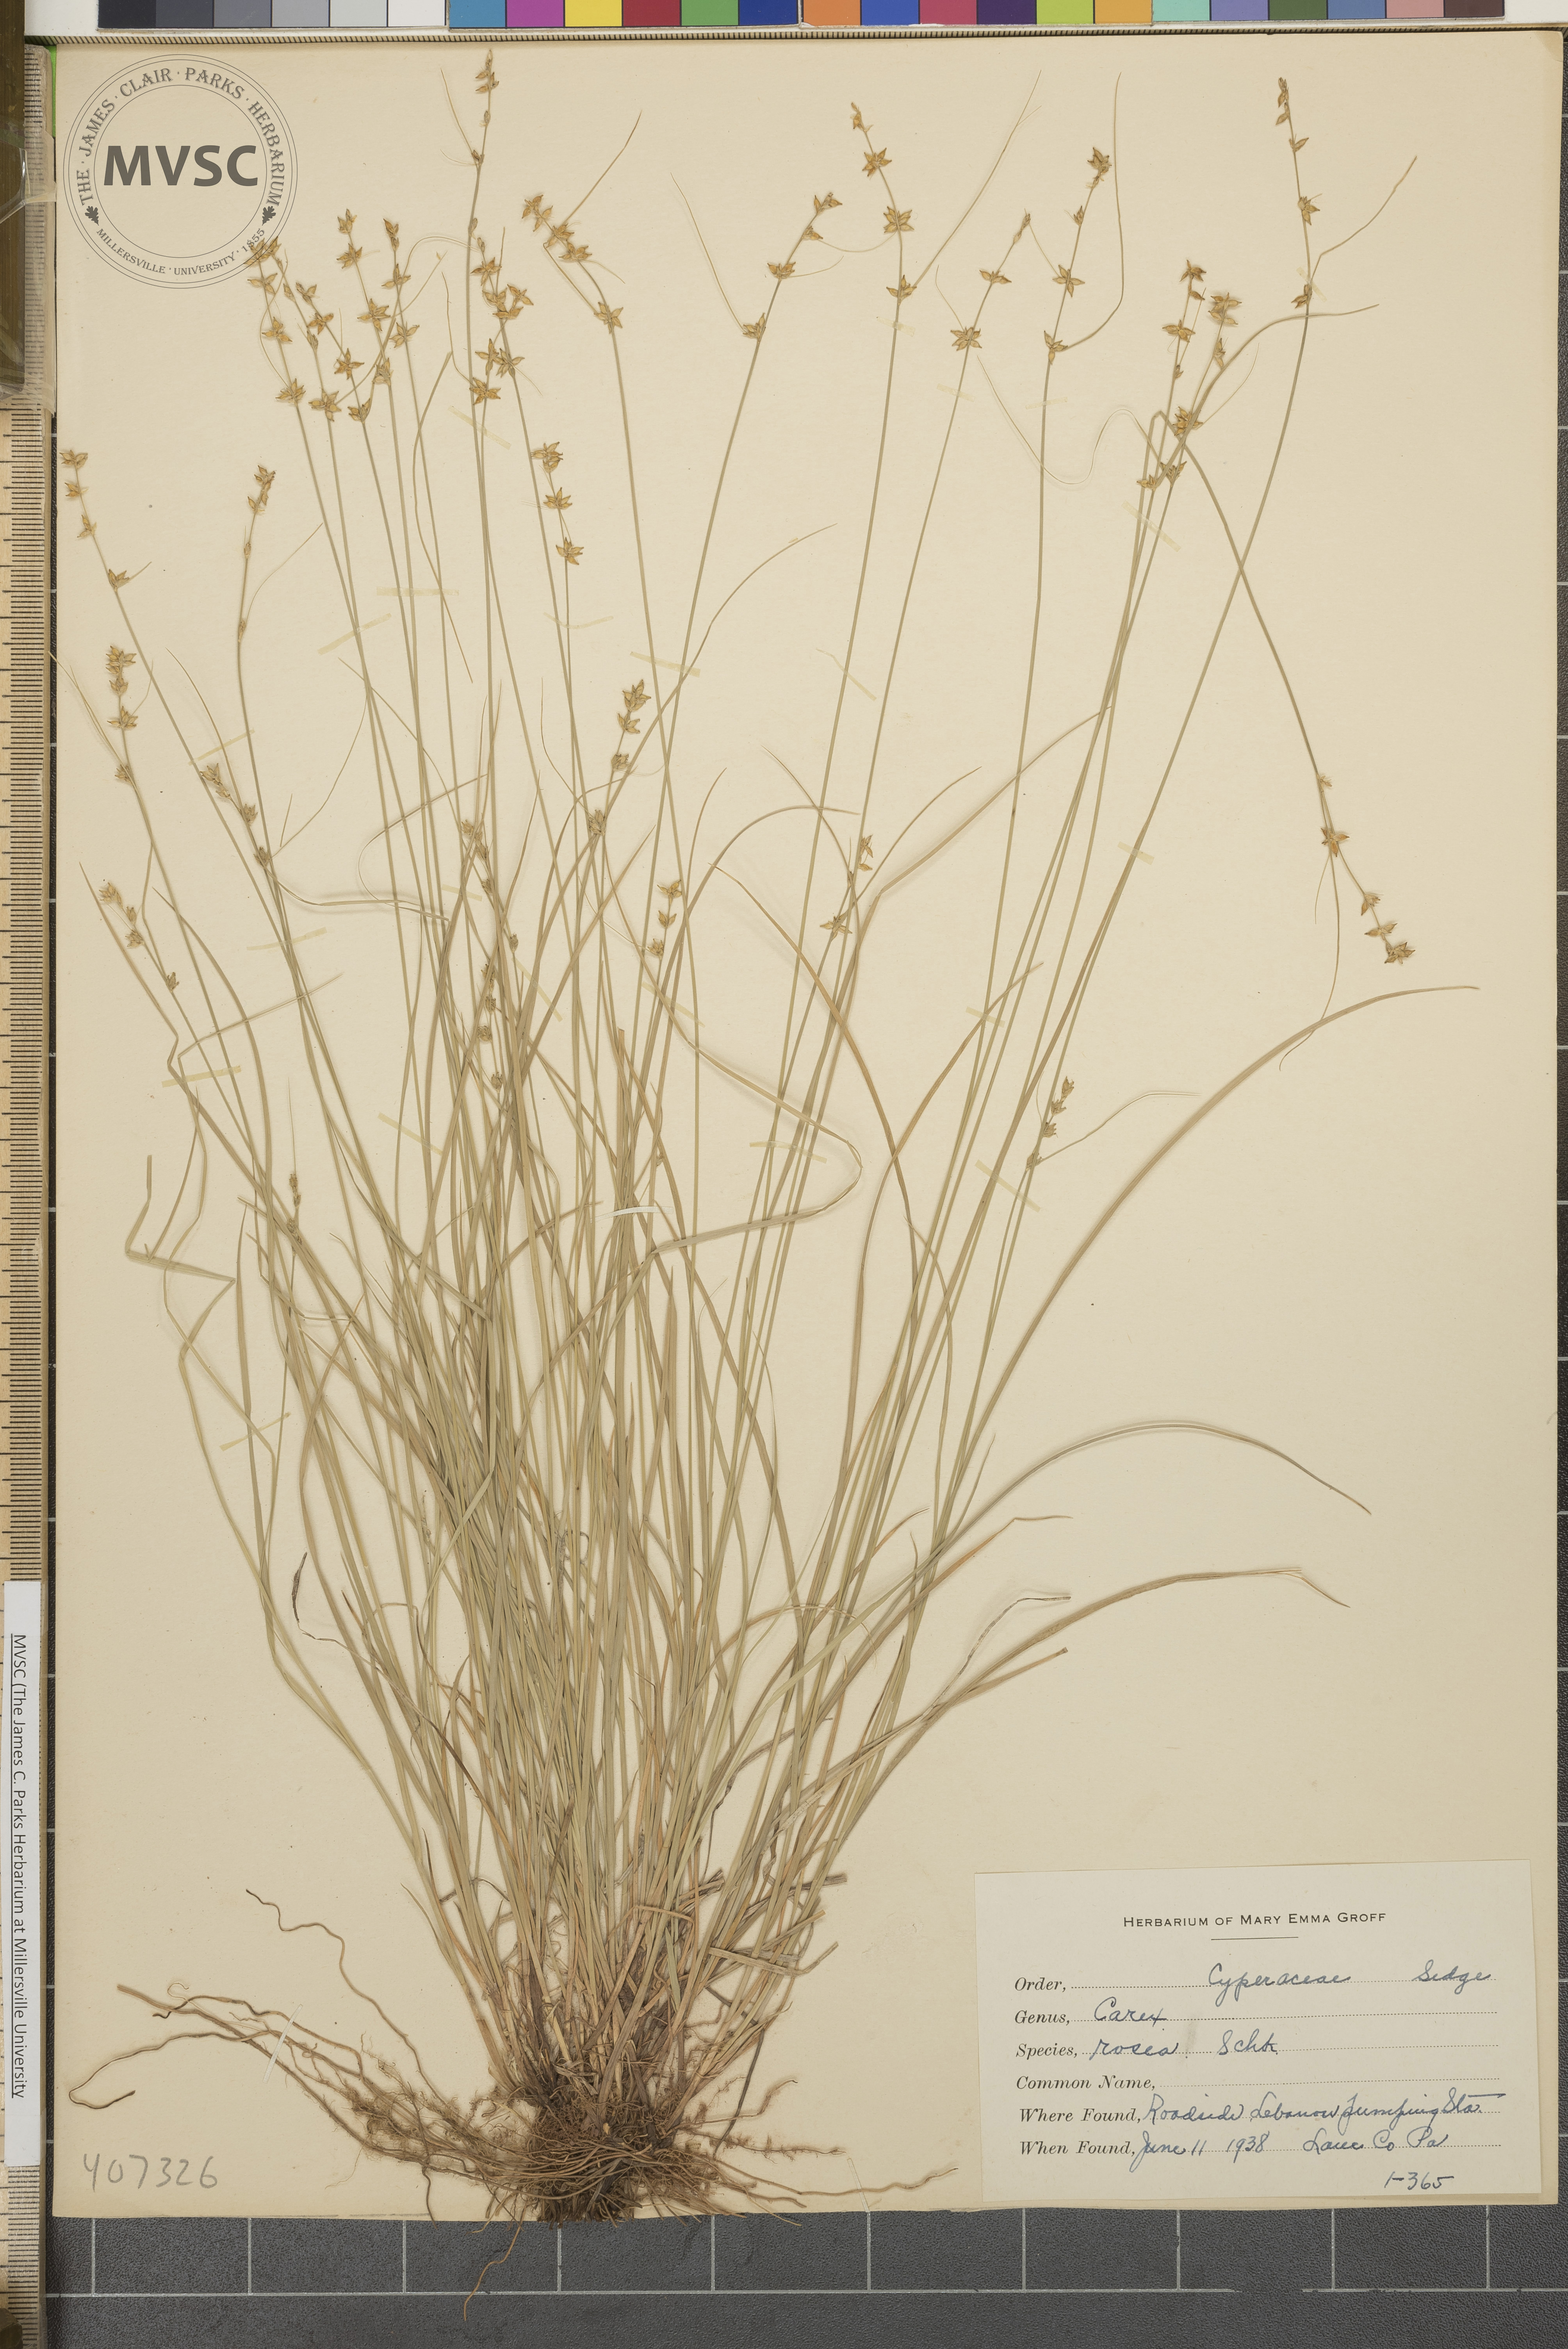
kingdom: Plantae
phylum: Tracheophyta
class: Liliopsida
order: Poales
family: Cyperaceae
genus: Carex
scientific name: Carex rosea
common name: Curly-styled wood sedge
